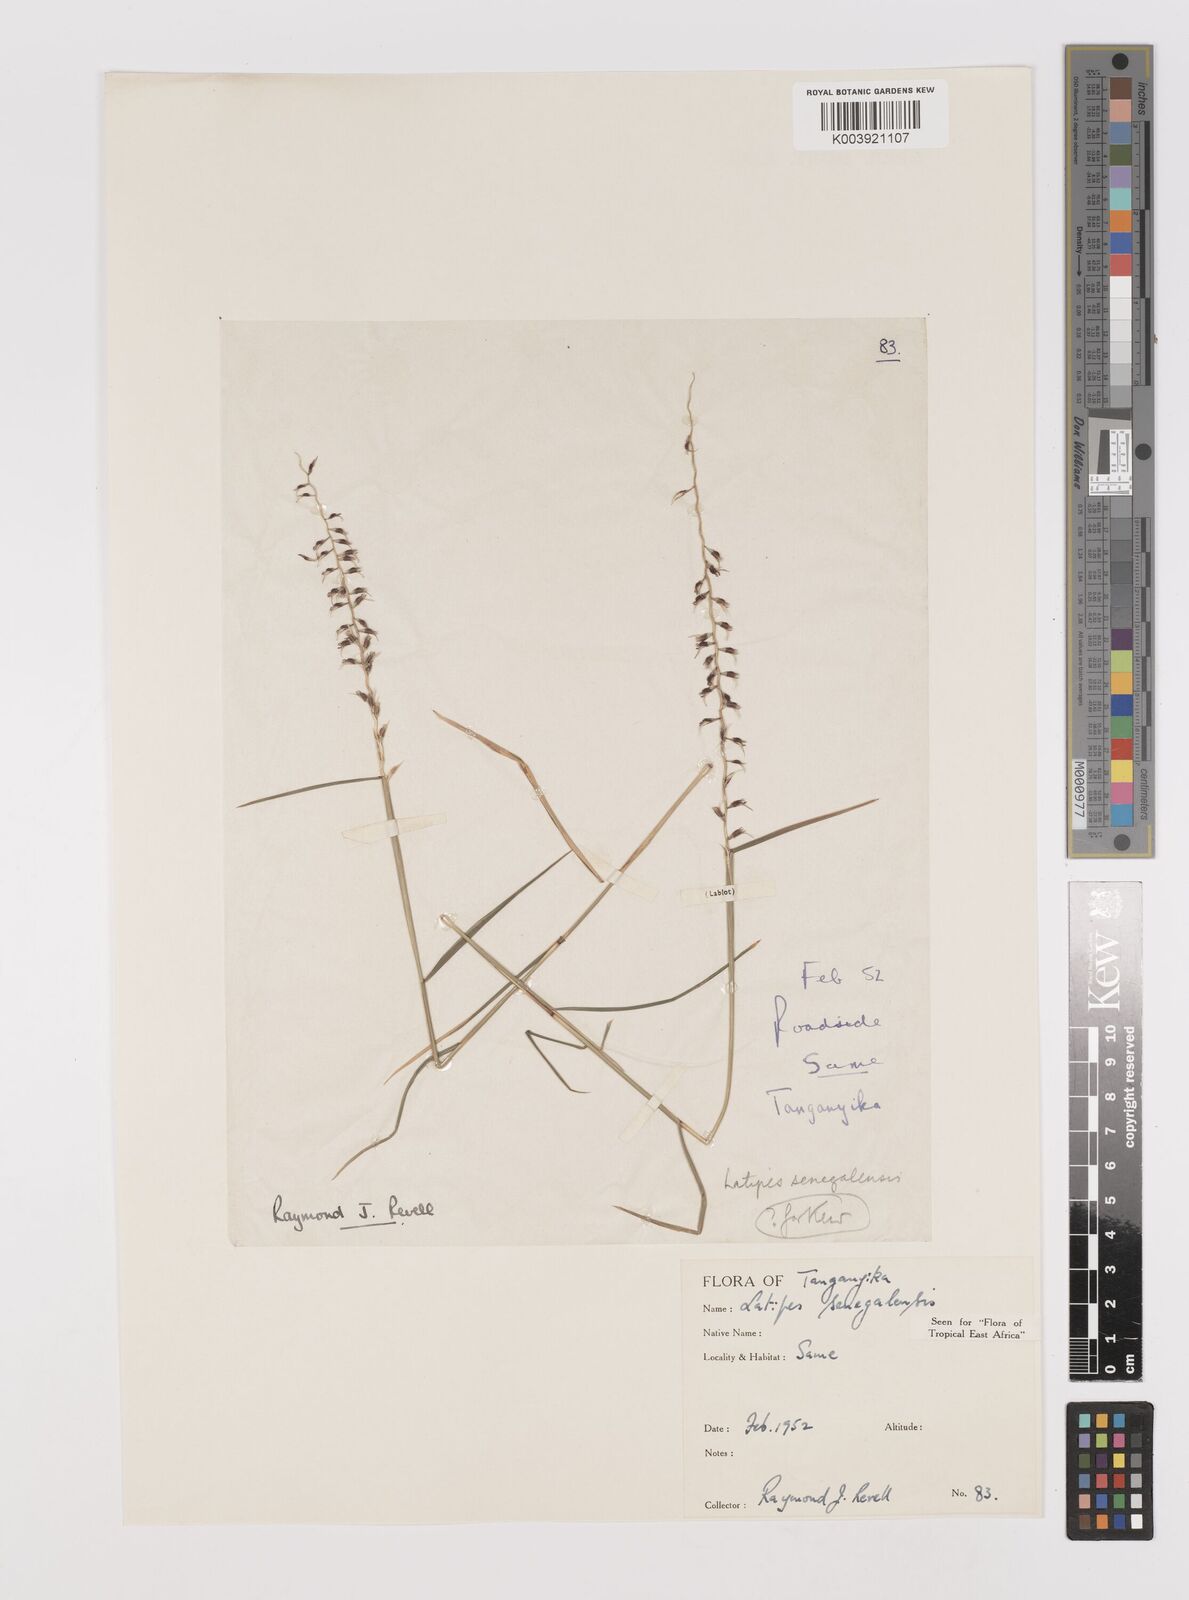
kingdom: Plantae
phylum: Tracheophyta
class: Liliopsida
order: Poales
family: Poaceae
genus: Leptothrium
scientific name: Leptothrium senegalense
